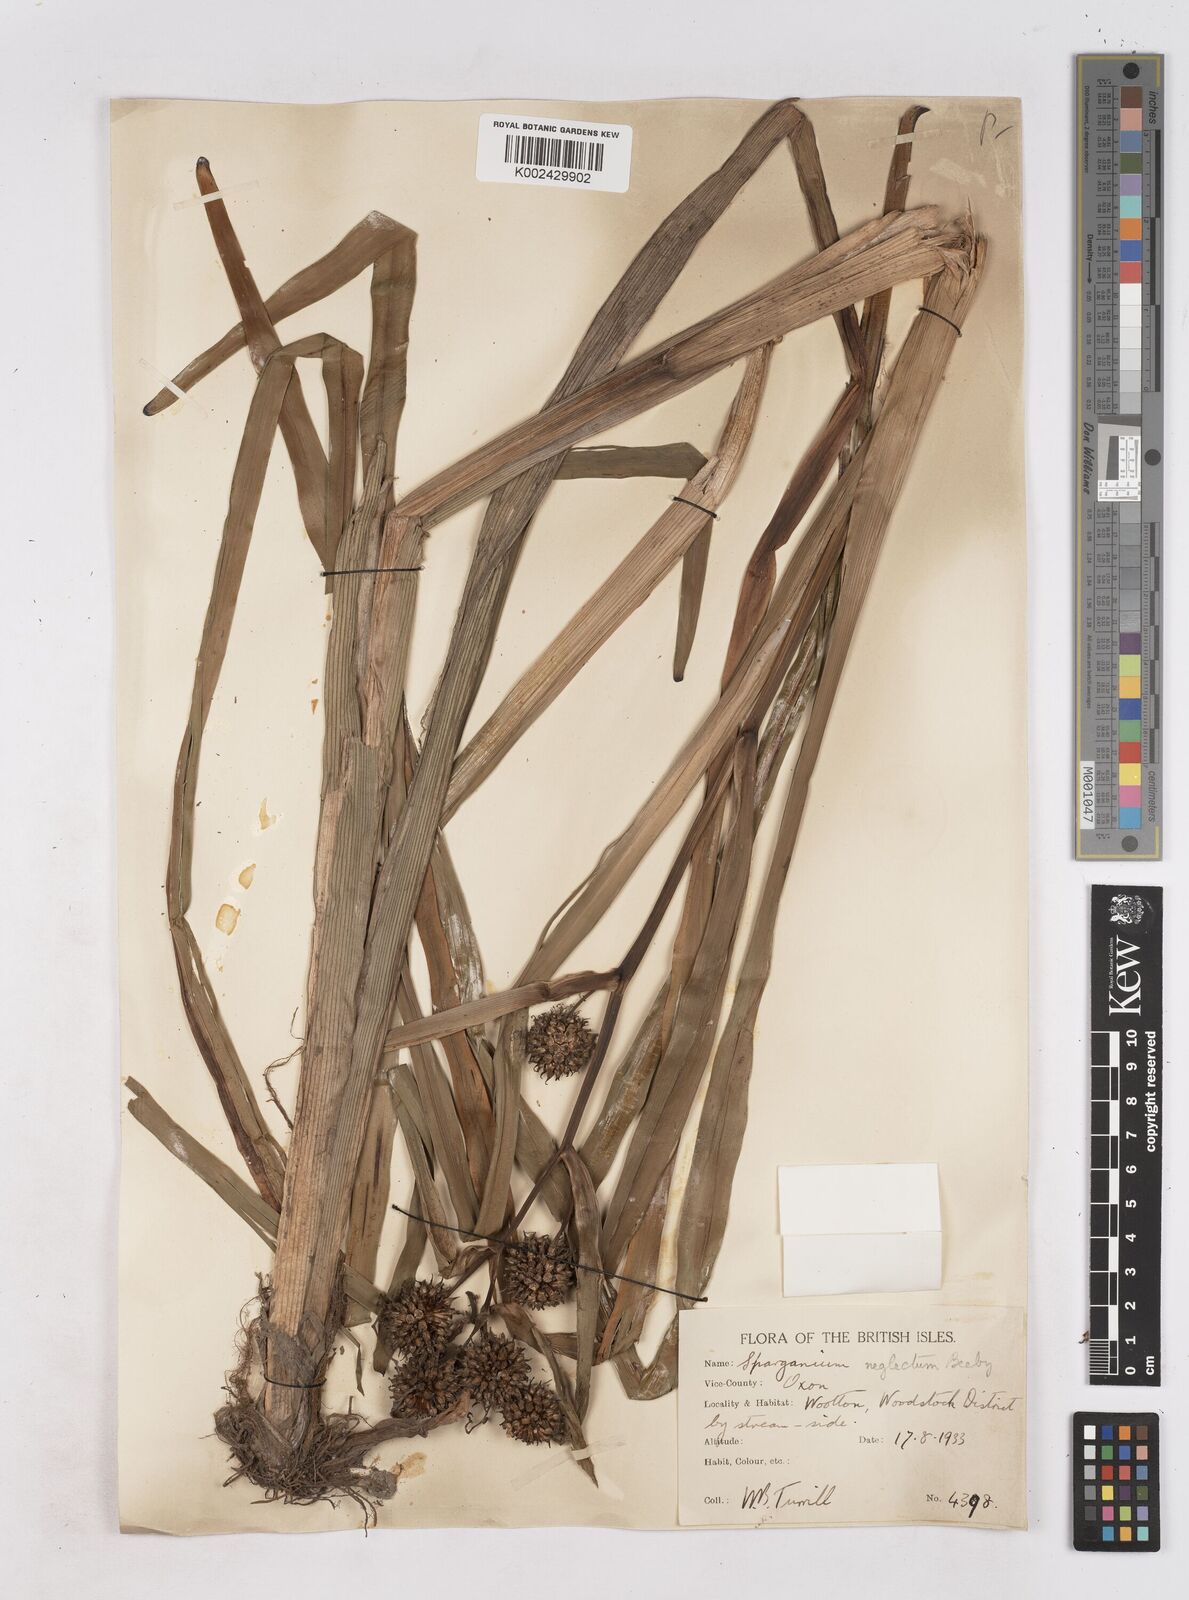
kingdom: Plantae
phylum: Tracheophyta
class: Liliopsida
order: Poales
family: Typhaceae
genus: Sparganium
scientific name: Sparganium erectum
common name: Branched bur-reed
